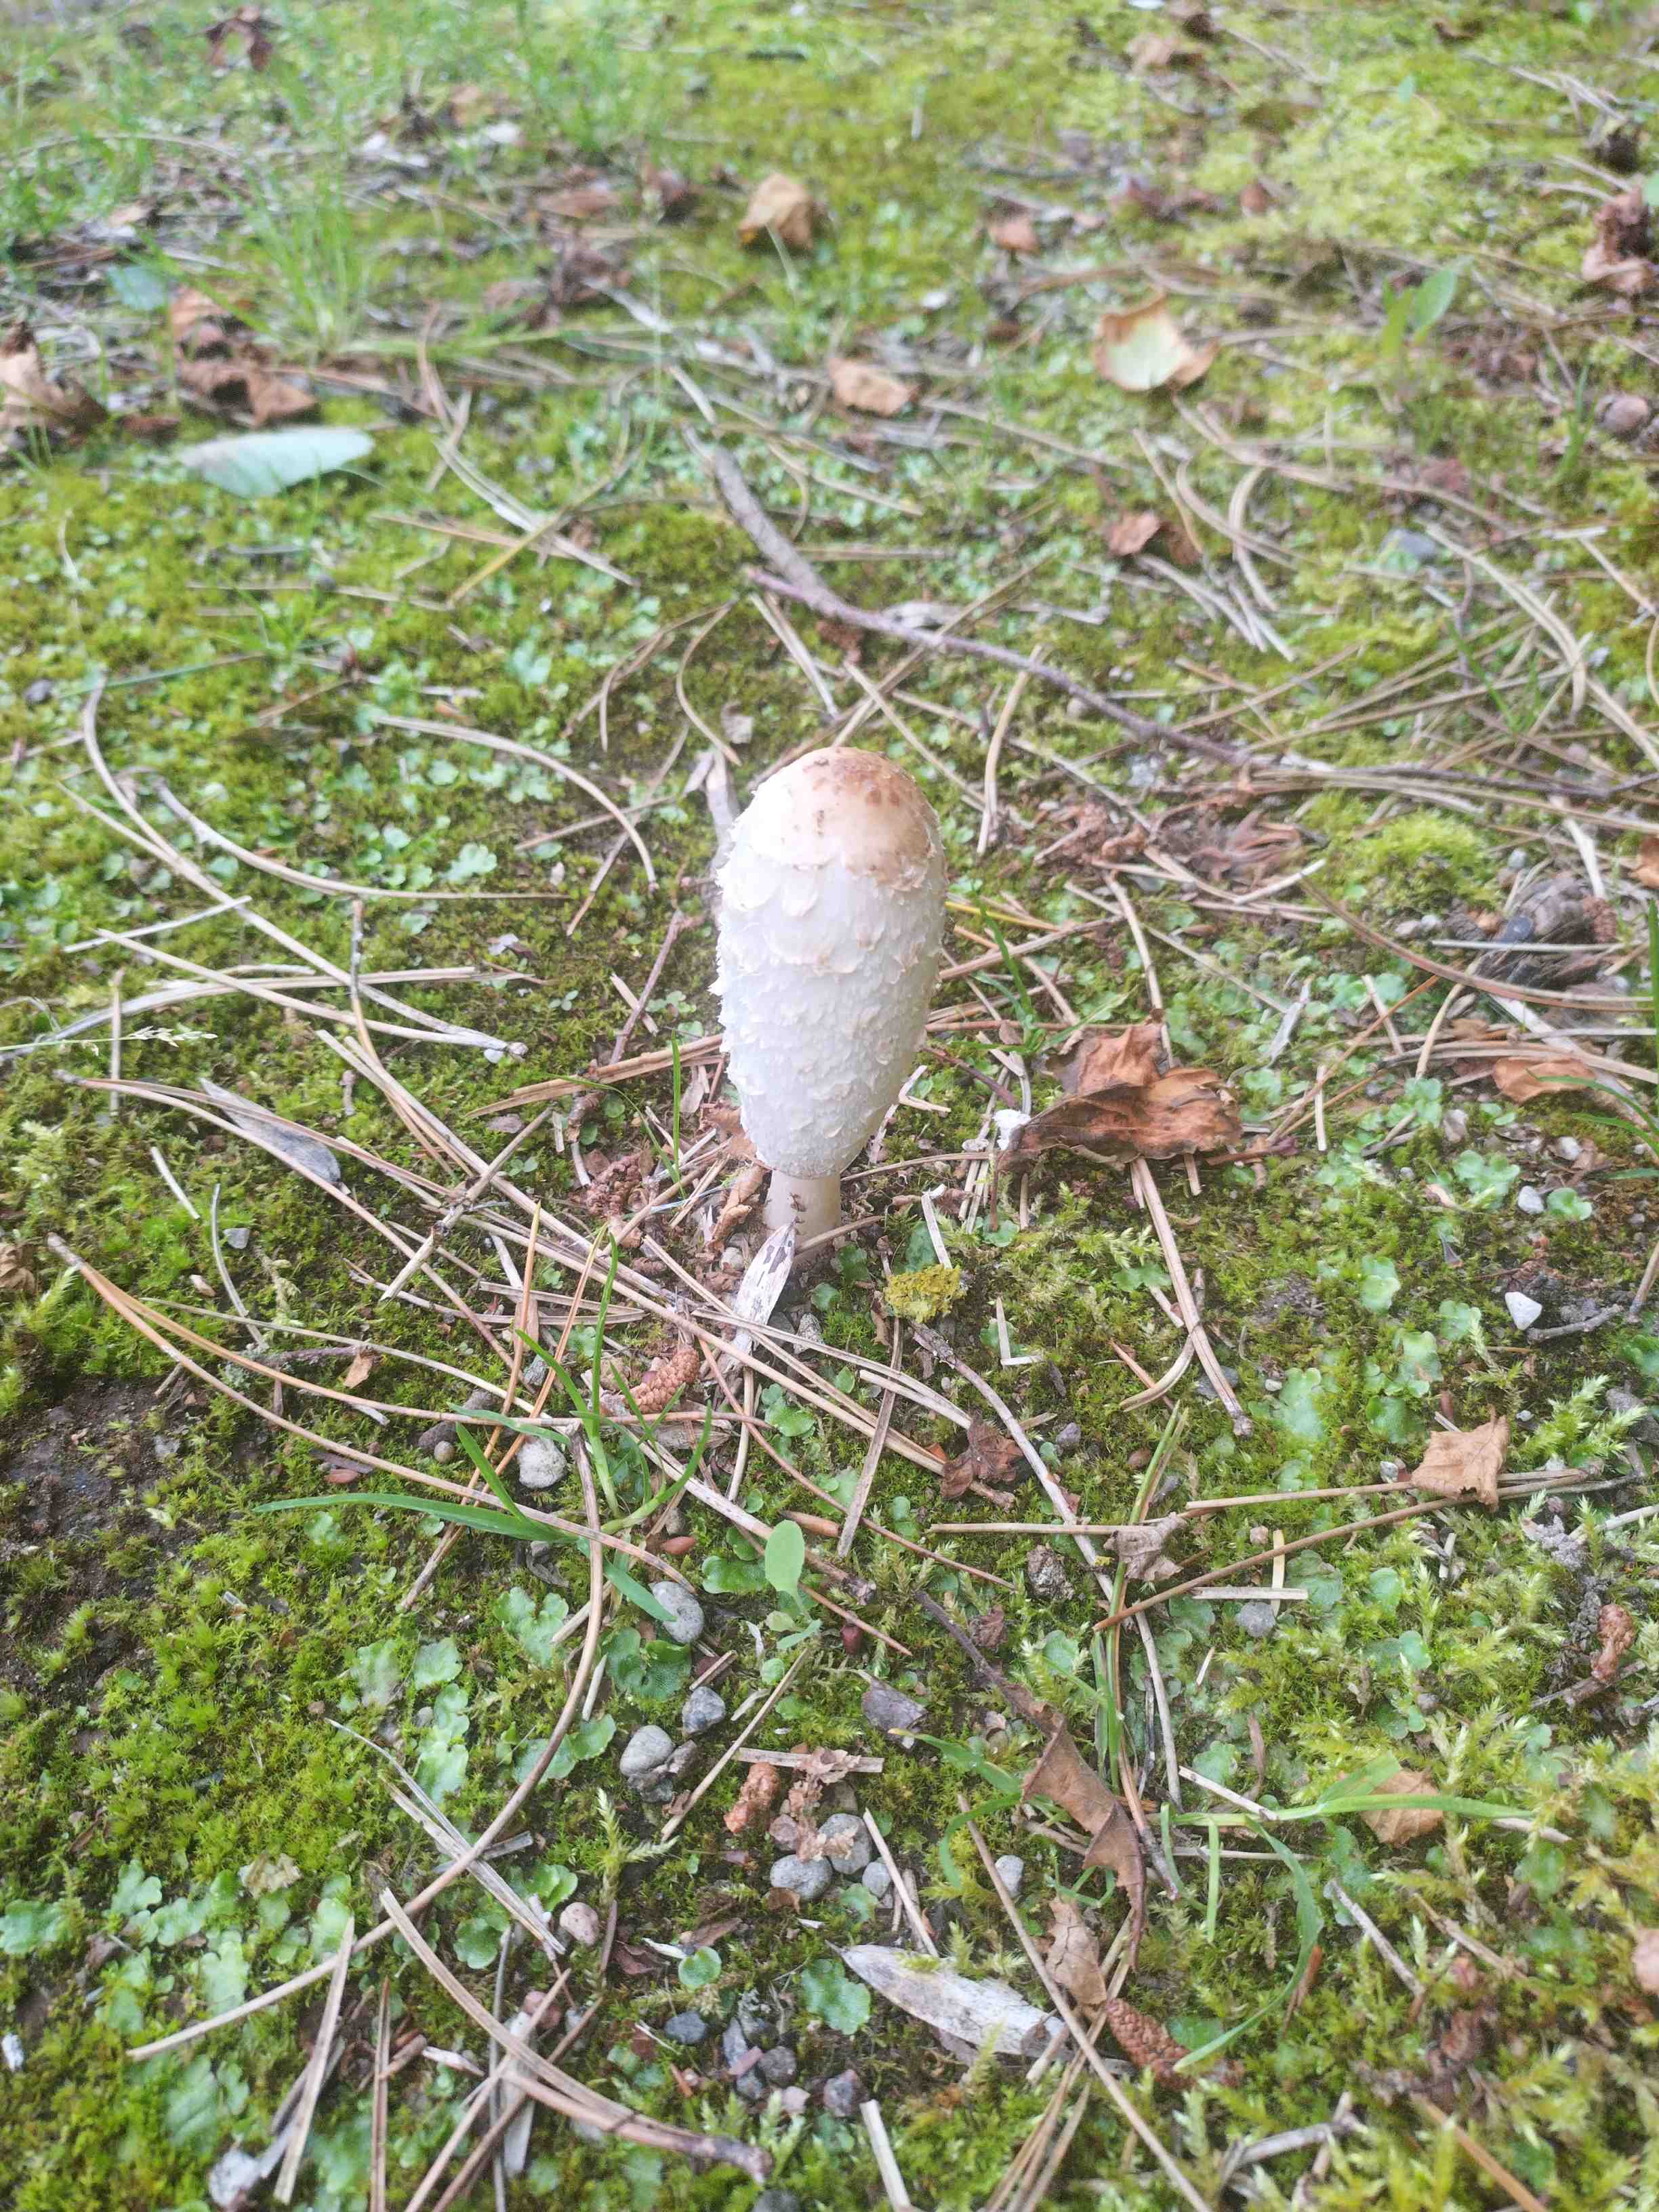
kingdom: Fungi
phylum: Basidiomycota
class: Agaricomycetes
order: Agaricales
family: Agaricaceae
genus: Coprinus
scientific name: Coprinus comatus
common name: stor parykhat
